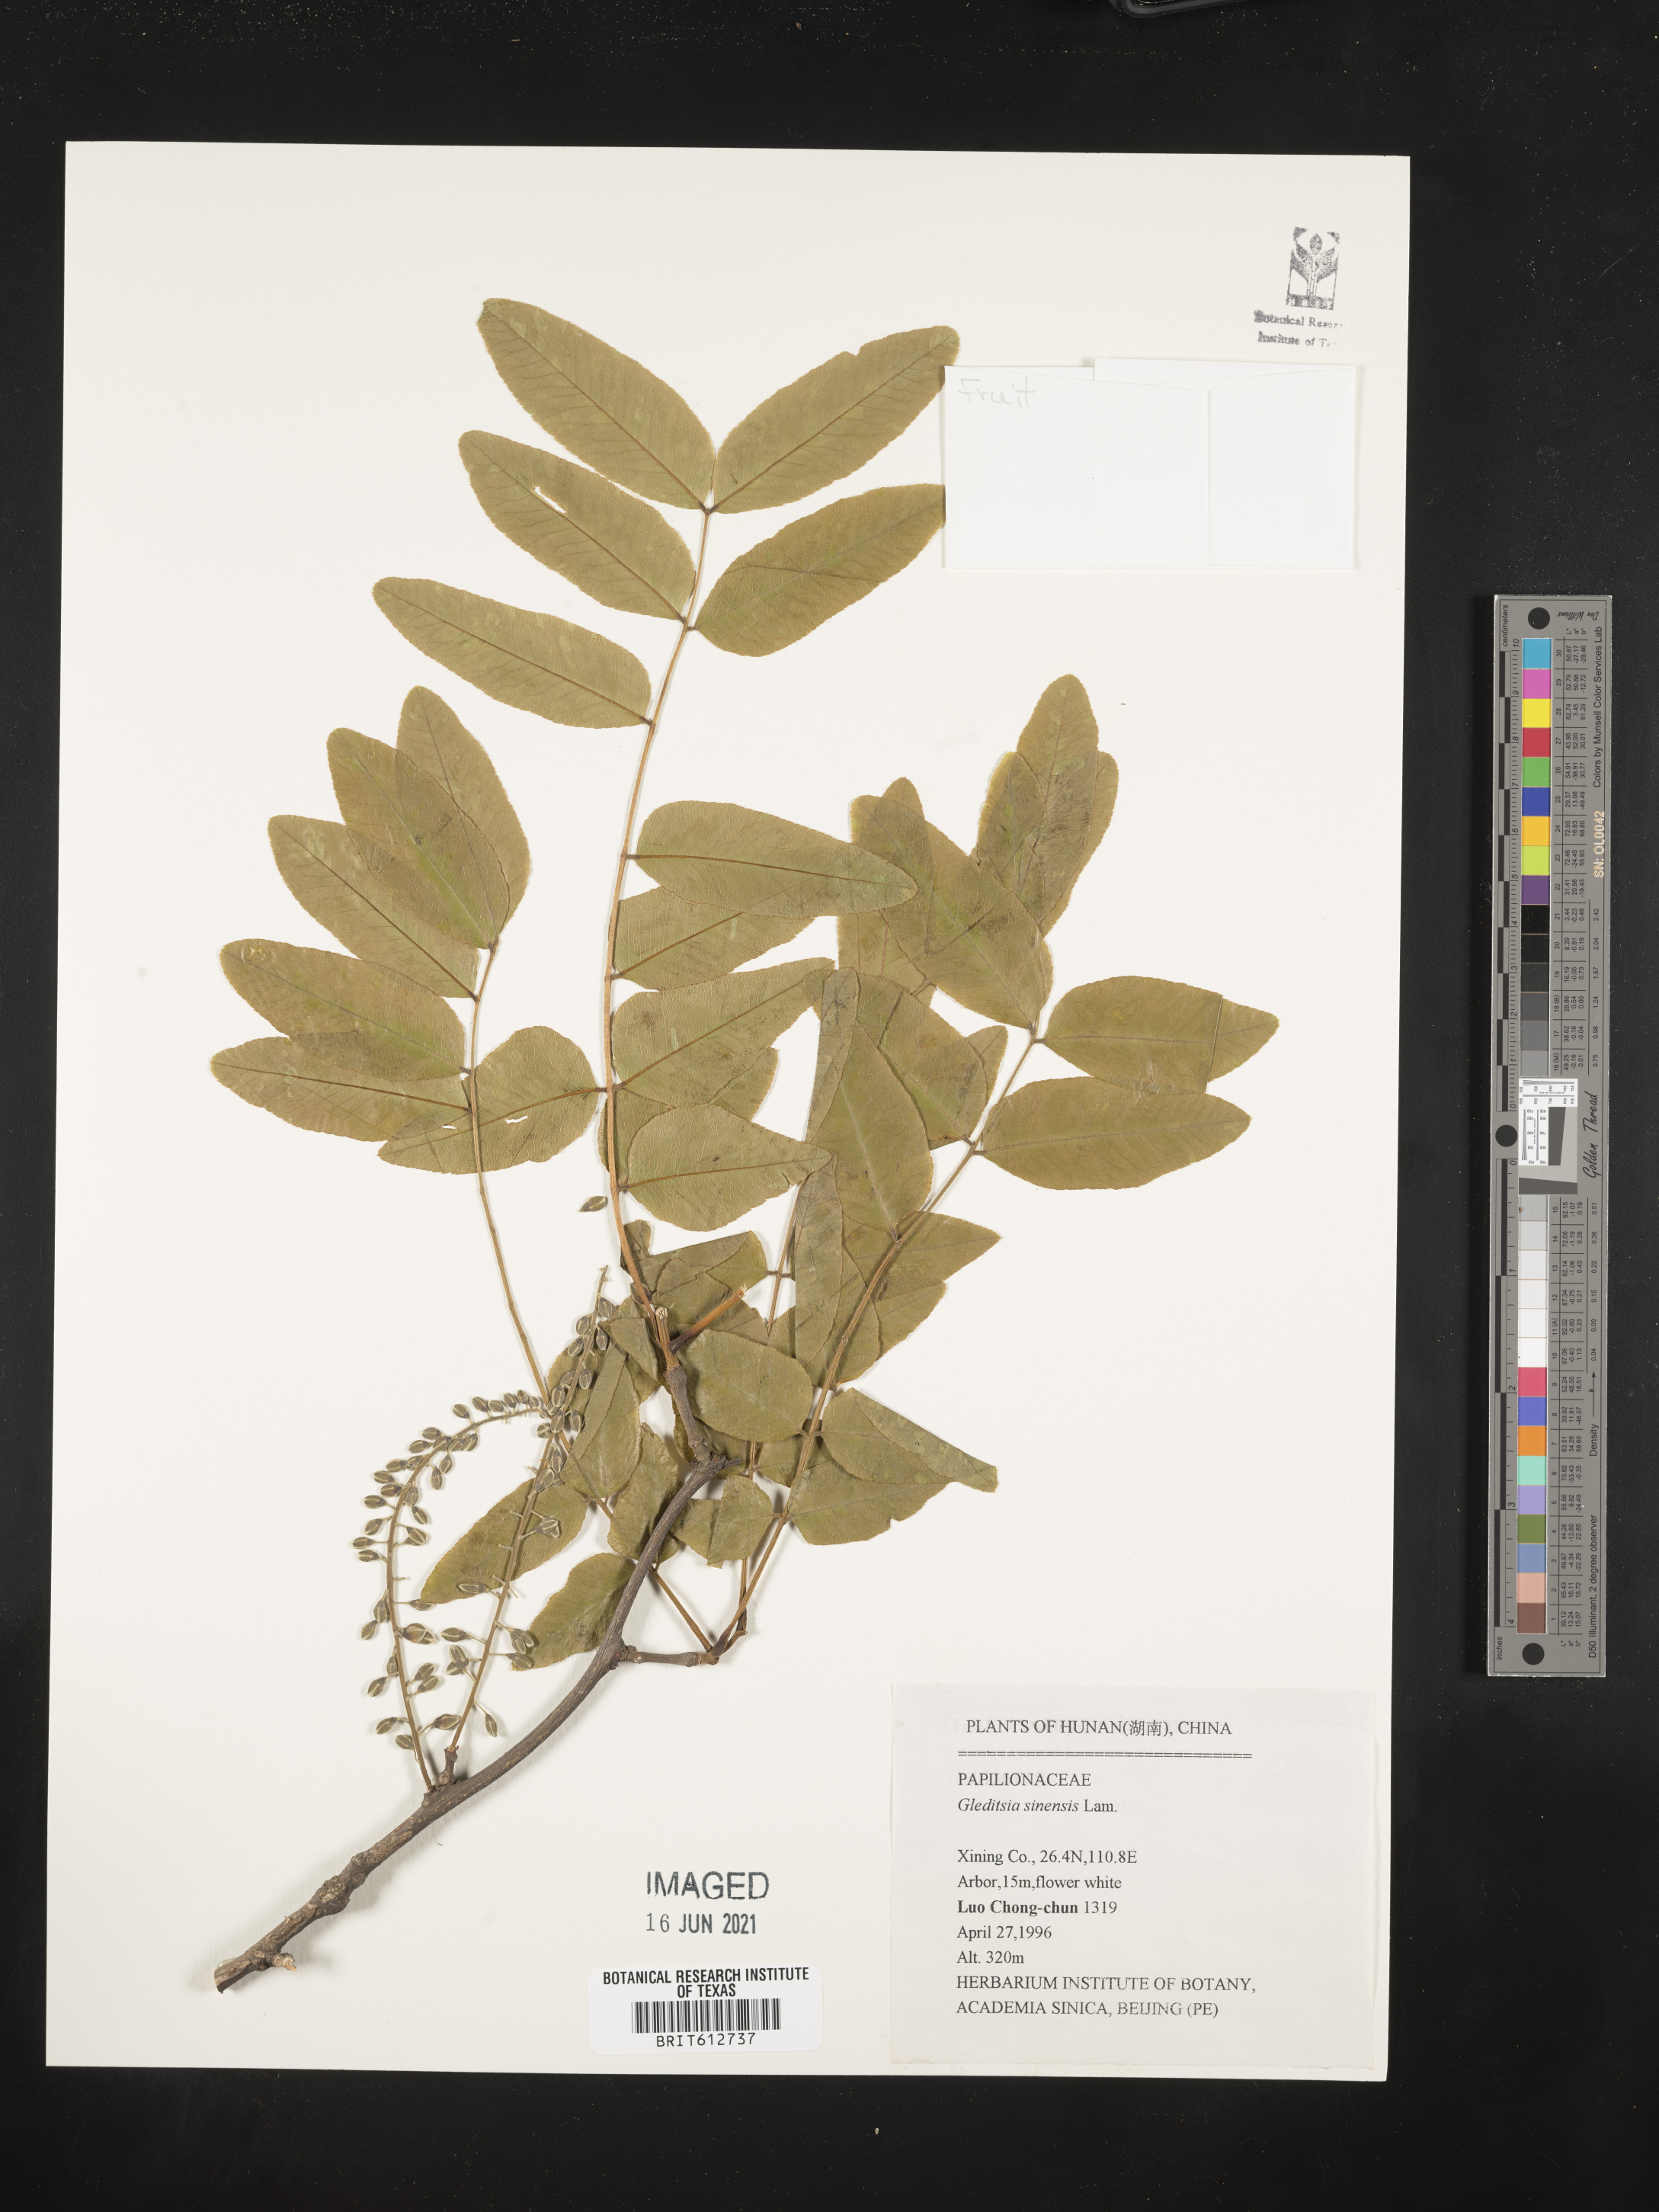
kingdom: Plantae
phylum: Tracheophyta
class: Magnoliopsida
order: Fabales
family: Fabaceae
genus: Gleditsia
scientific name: Gleditsia sinensis
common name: Chinese honey-locust
